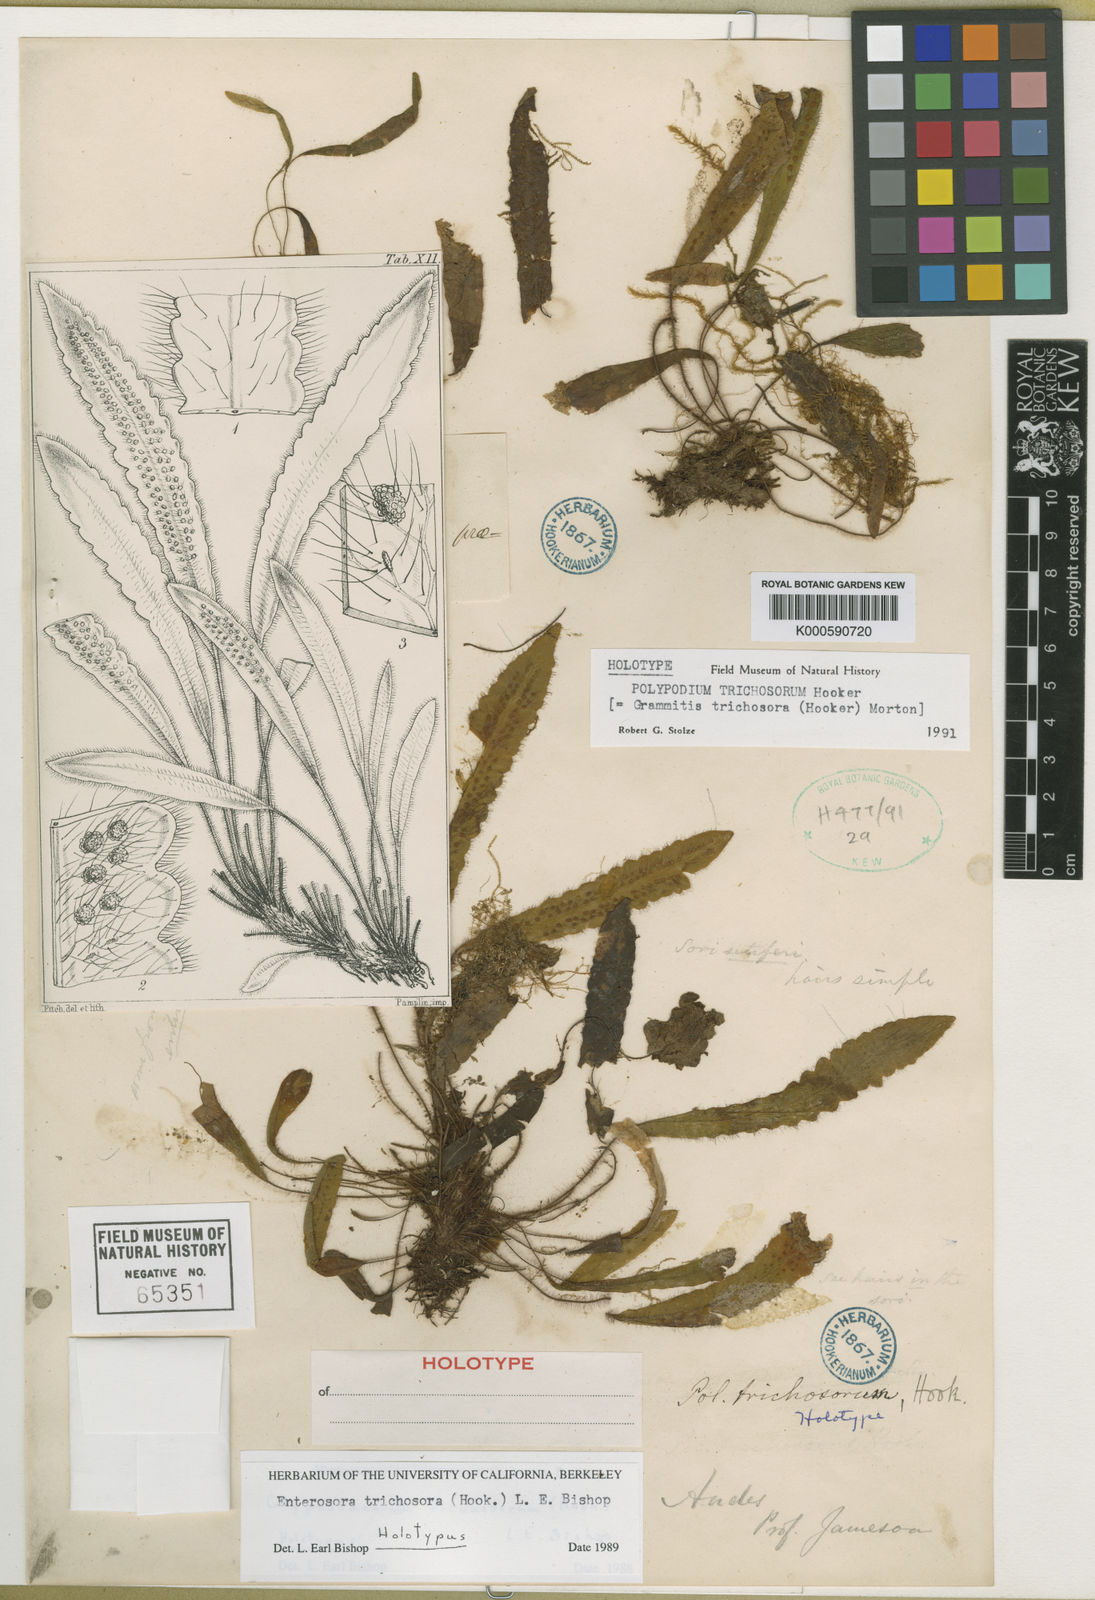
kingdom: Plantae
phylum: Tracheophyta
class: Polypodiopsida
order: Polypodiales
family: Polypodiaceae
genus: Enterosora
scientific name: Enterosora trichosora
